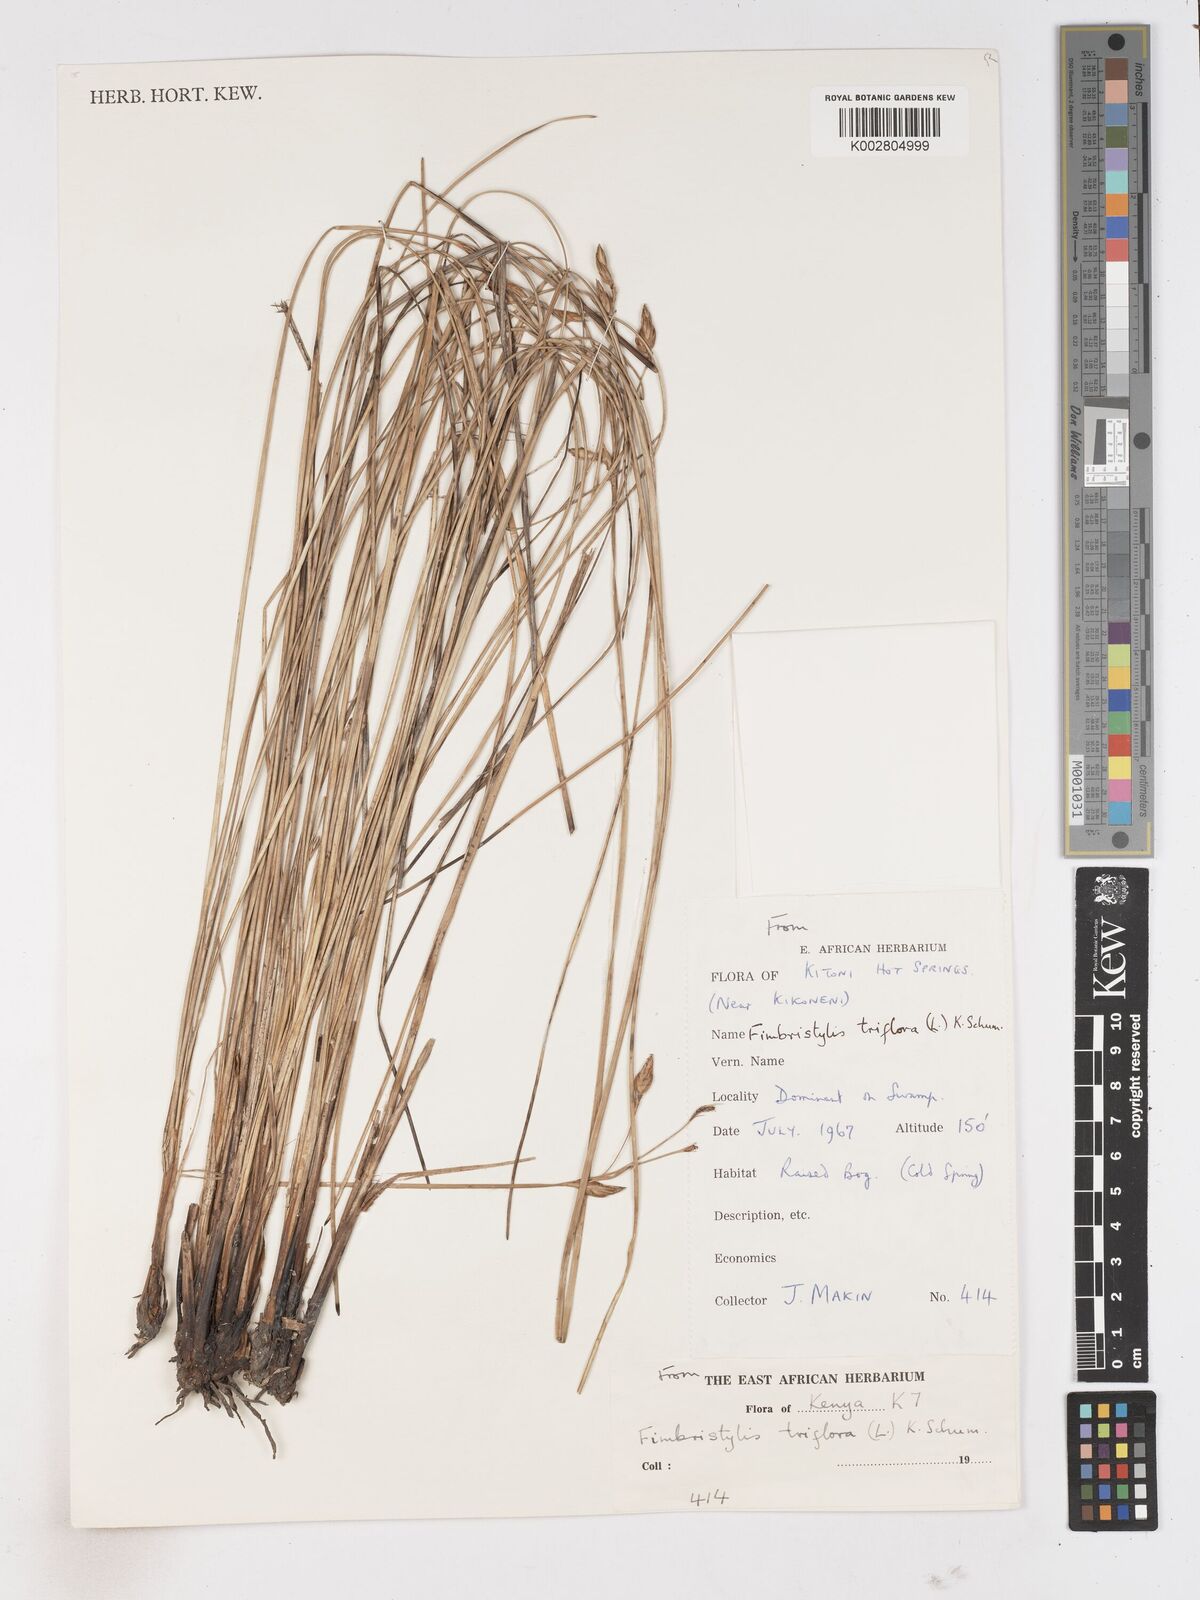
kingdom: Plantae
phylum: Tracheophyta
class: Liliopsida
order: Poales
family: Cyperaceae
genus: Abildgaardia
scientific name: Abildgaardia triflora
